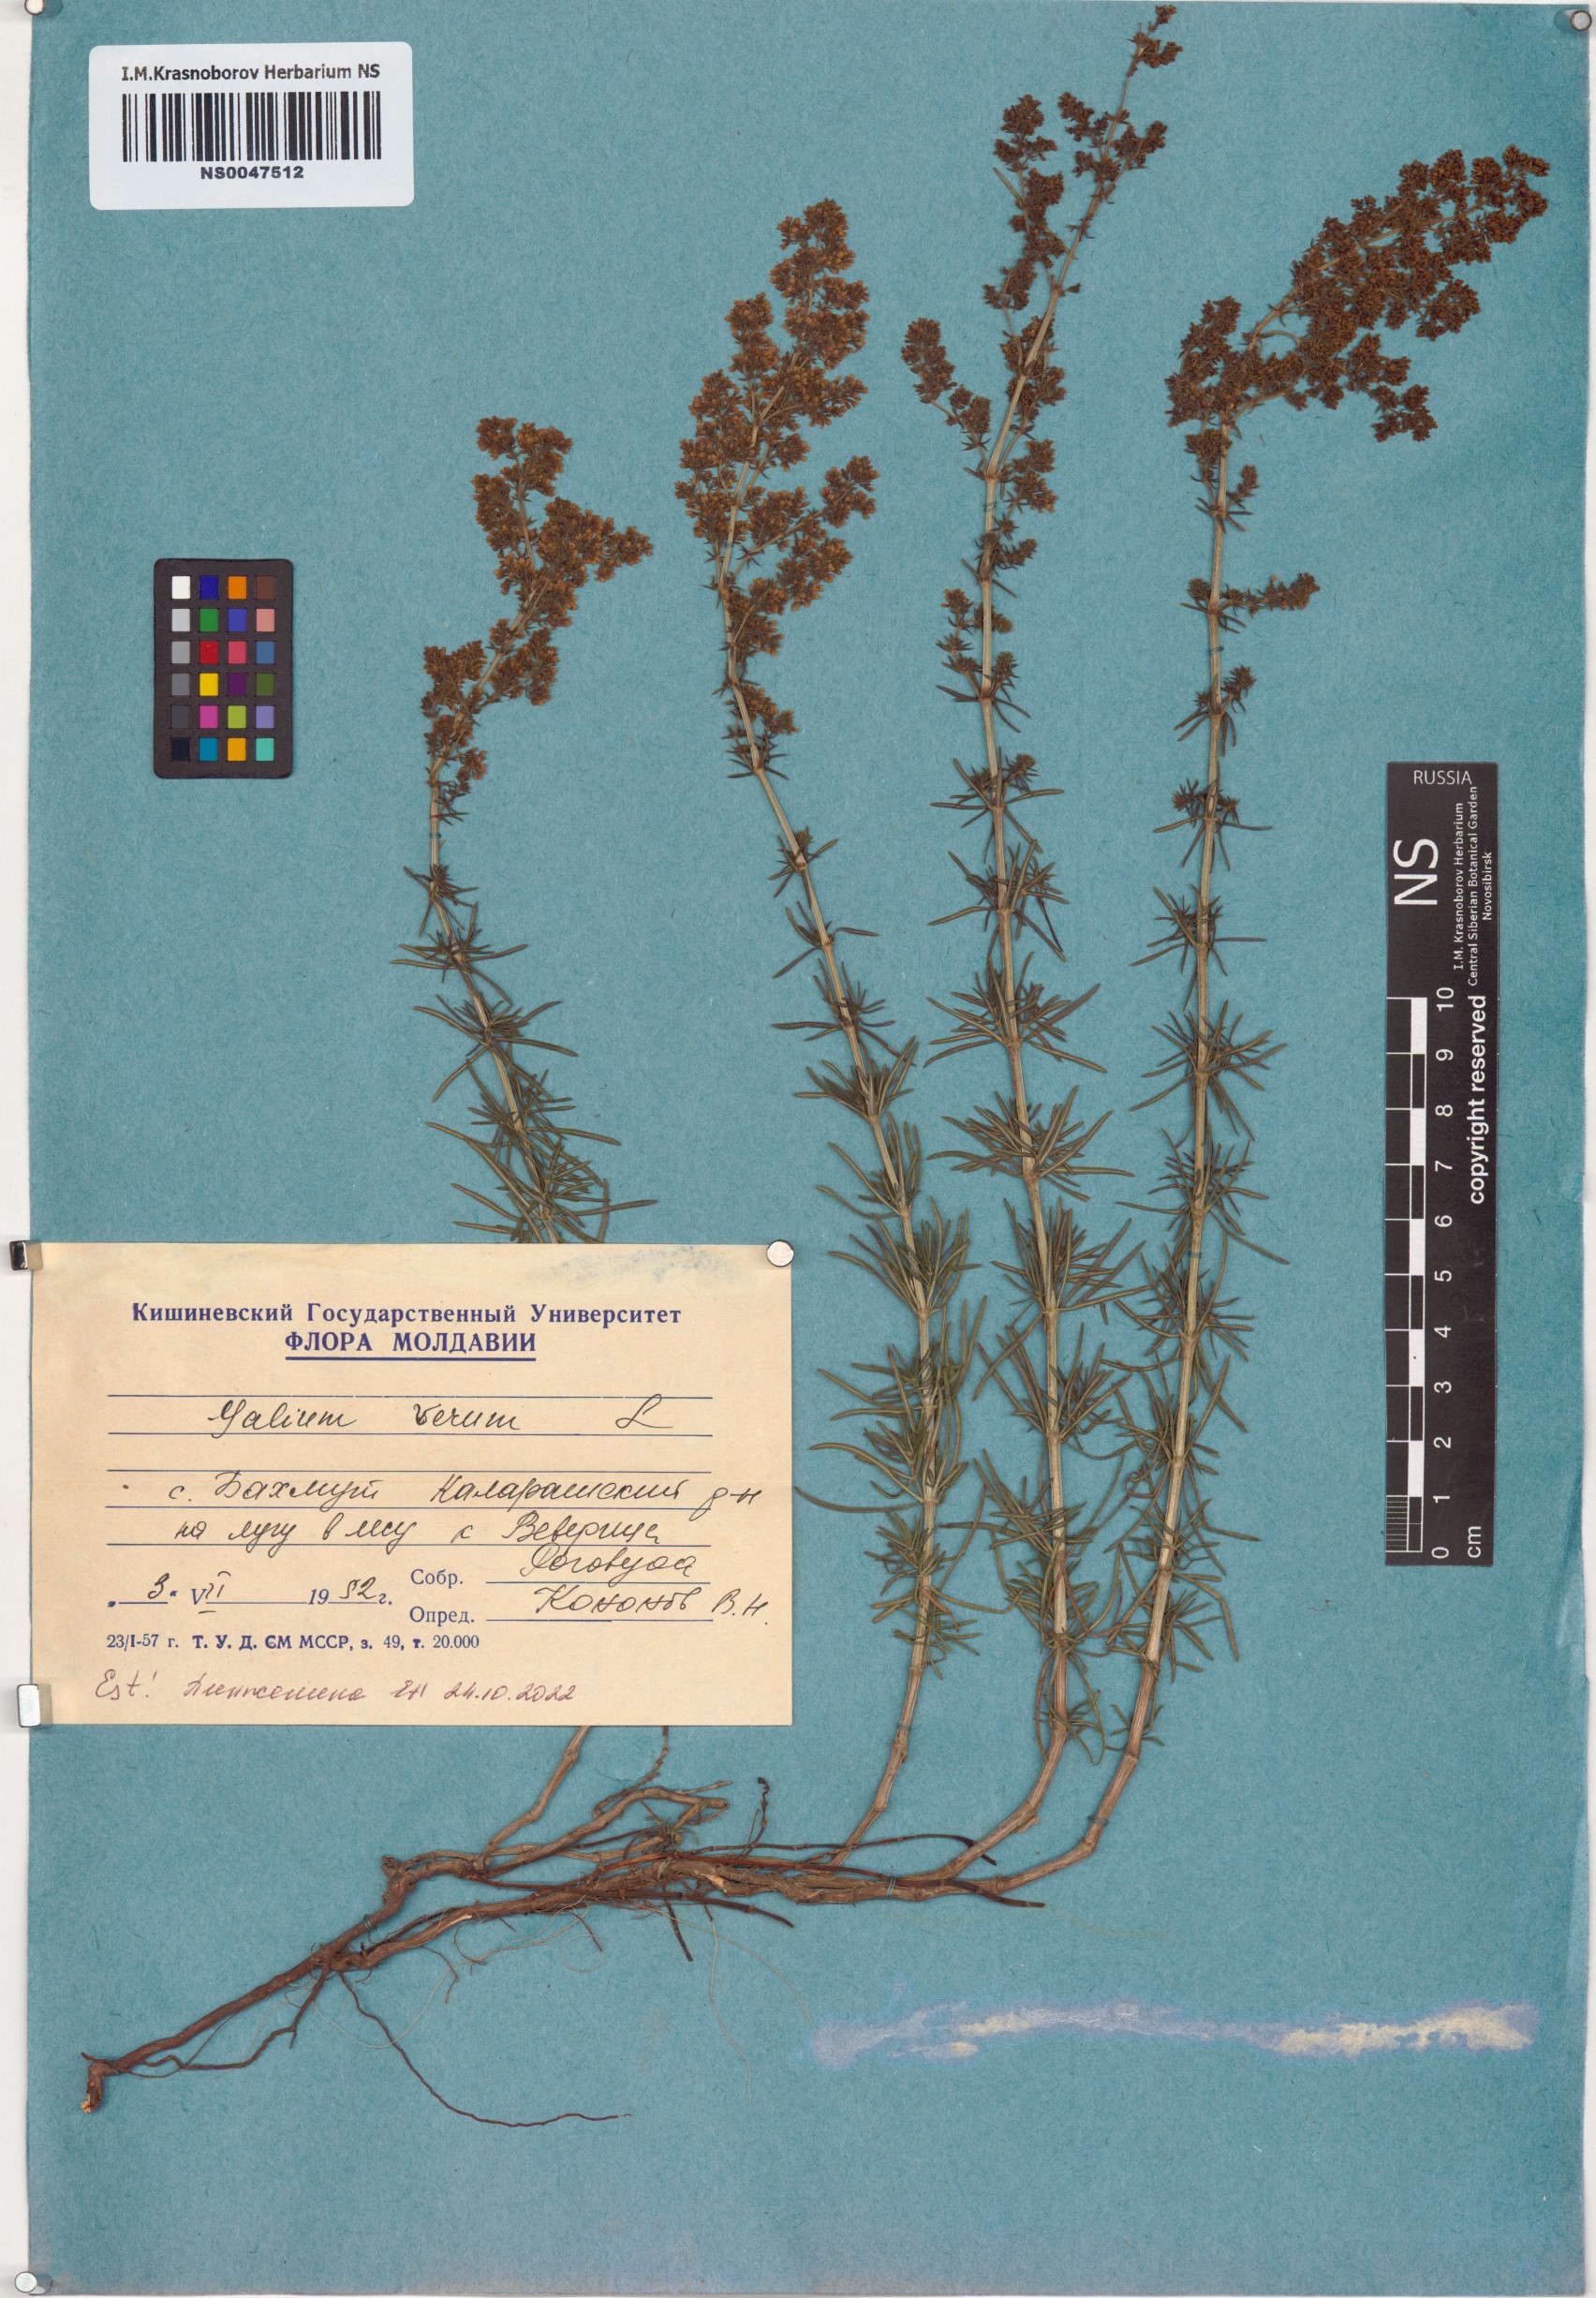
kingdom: Plantae
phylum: Tracheophyta
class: Magnoliopsida
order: Gentianales
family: Rubiaceae
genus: Galium
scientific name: Galium verum
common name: Lady's bedstraw
